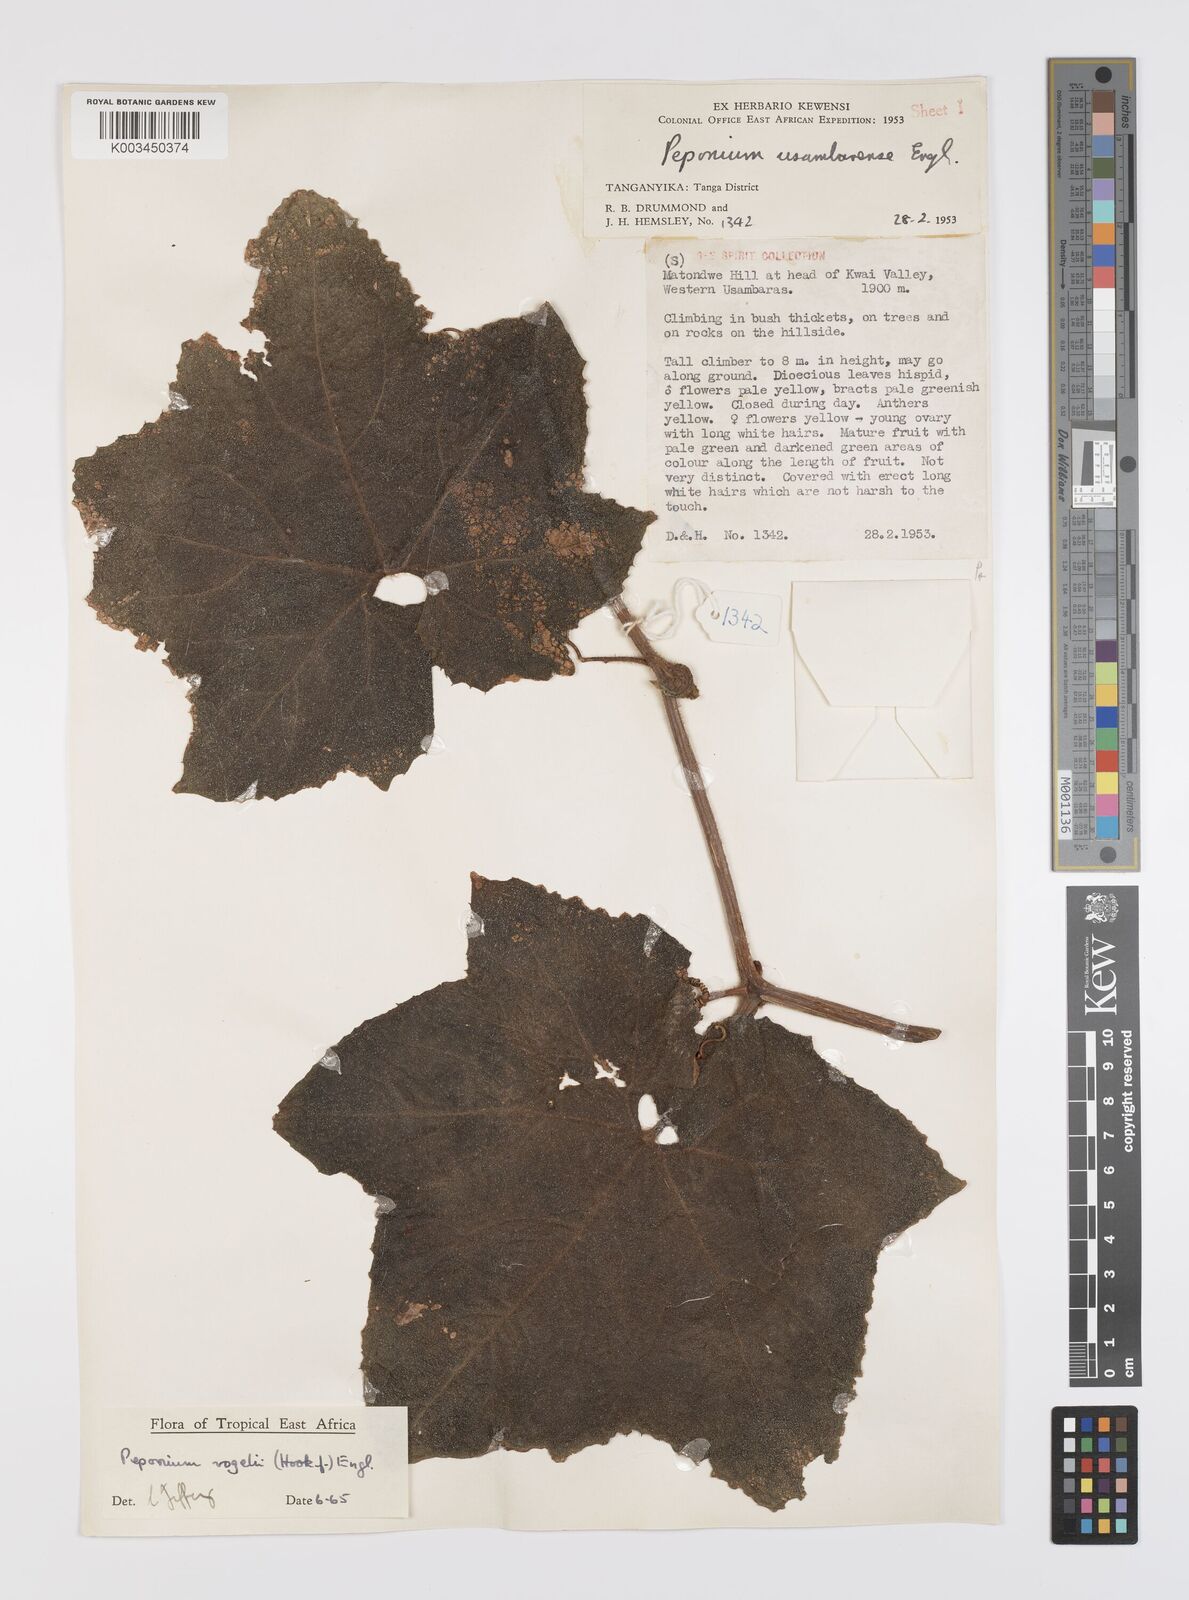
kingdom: Plantae
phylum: Tracheophyta
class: Magnoliopsida
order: Cucurbitales
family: Cucurbitaceae
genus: Peponium
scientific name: Peponium vogelii
